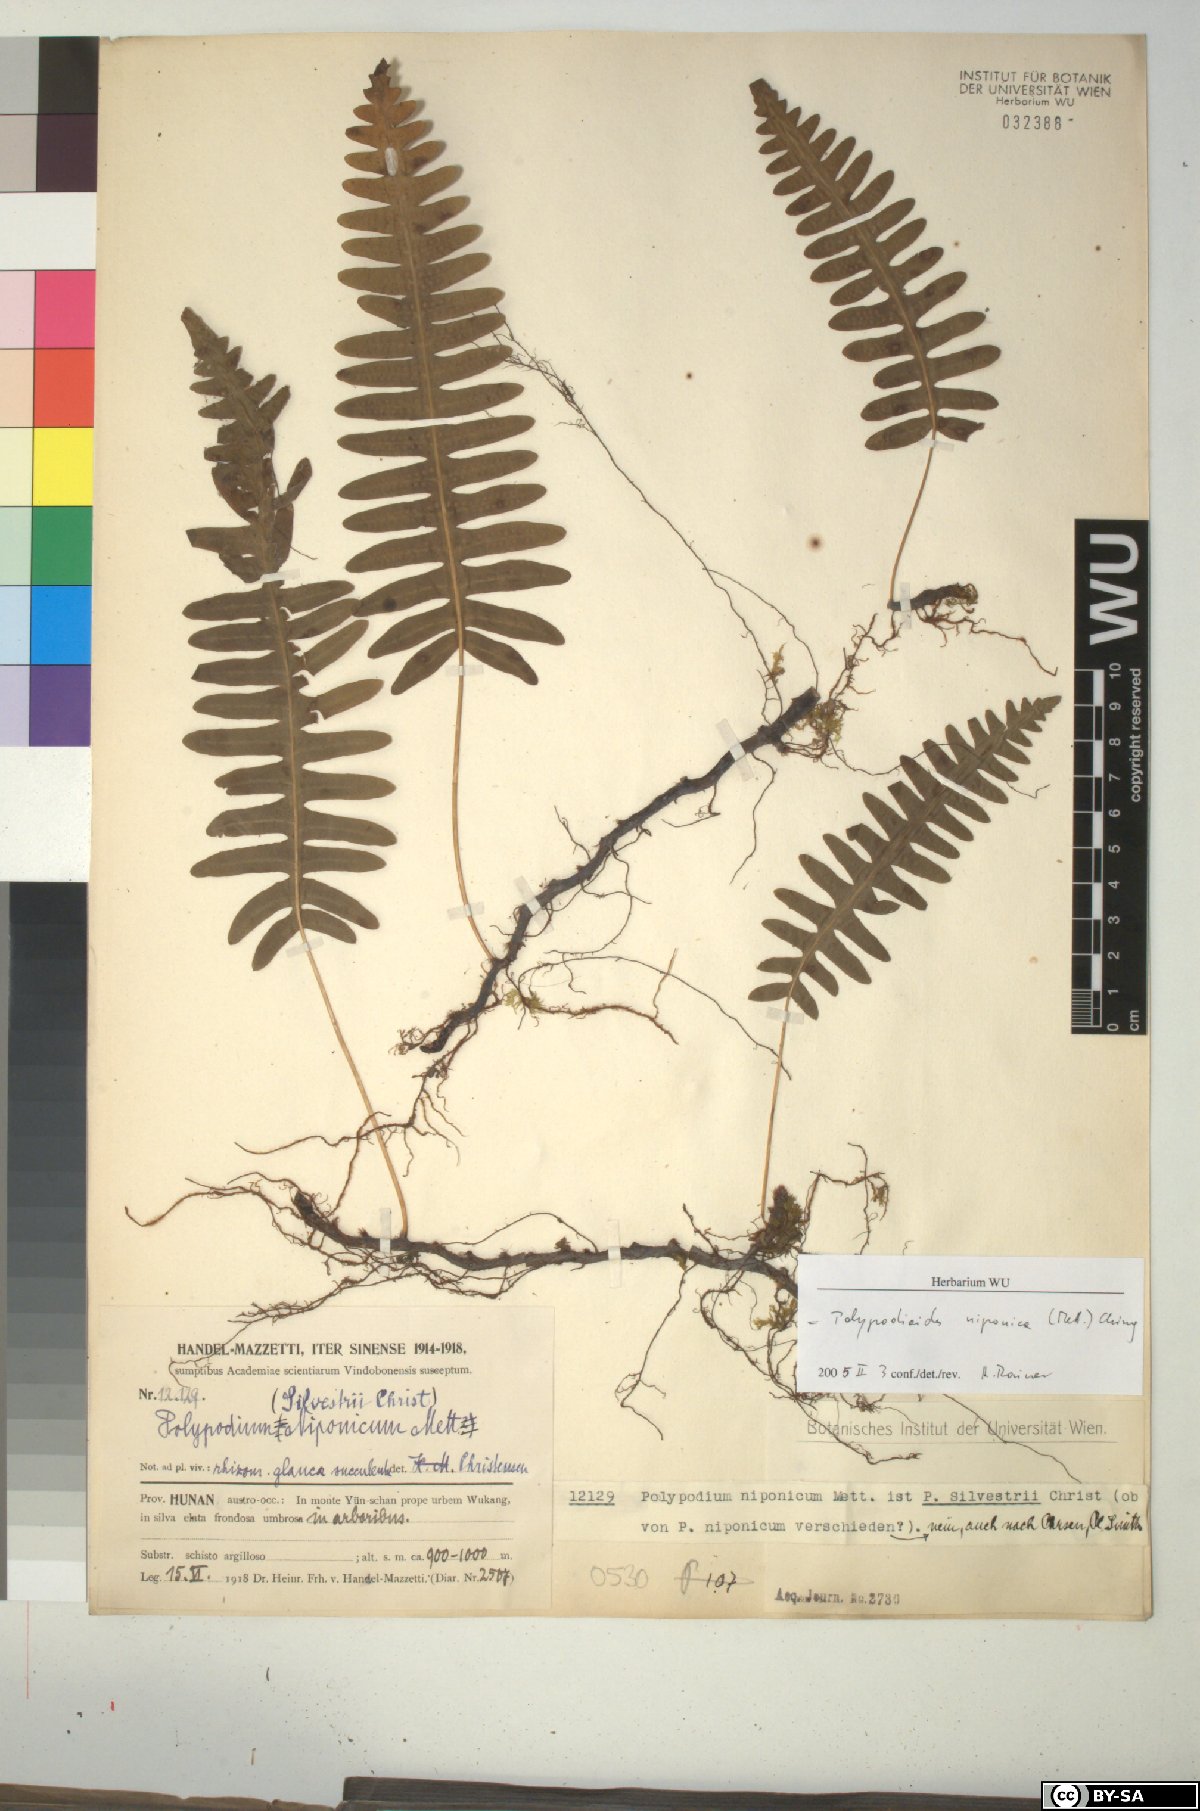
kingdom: Plantae
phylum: Tracheophyta
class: Polypodiopsida
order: Polypodiales
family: Polypodiaceae
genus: Goniophlebium
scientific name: Goniophlebium niponicum
